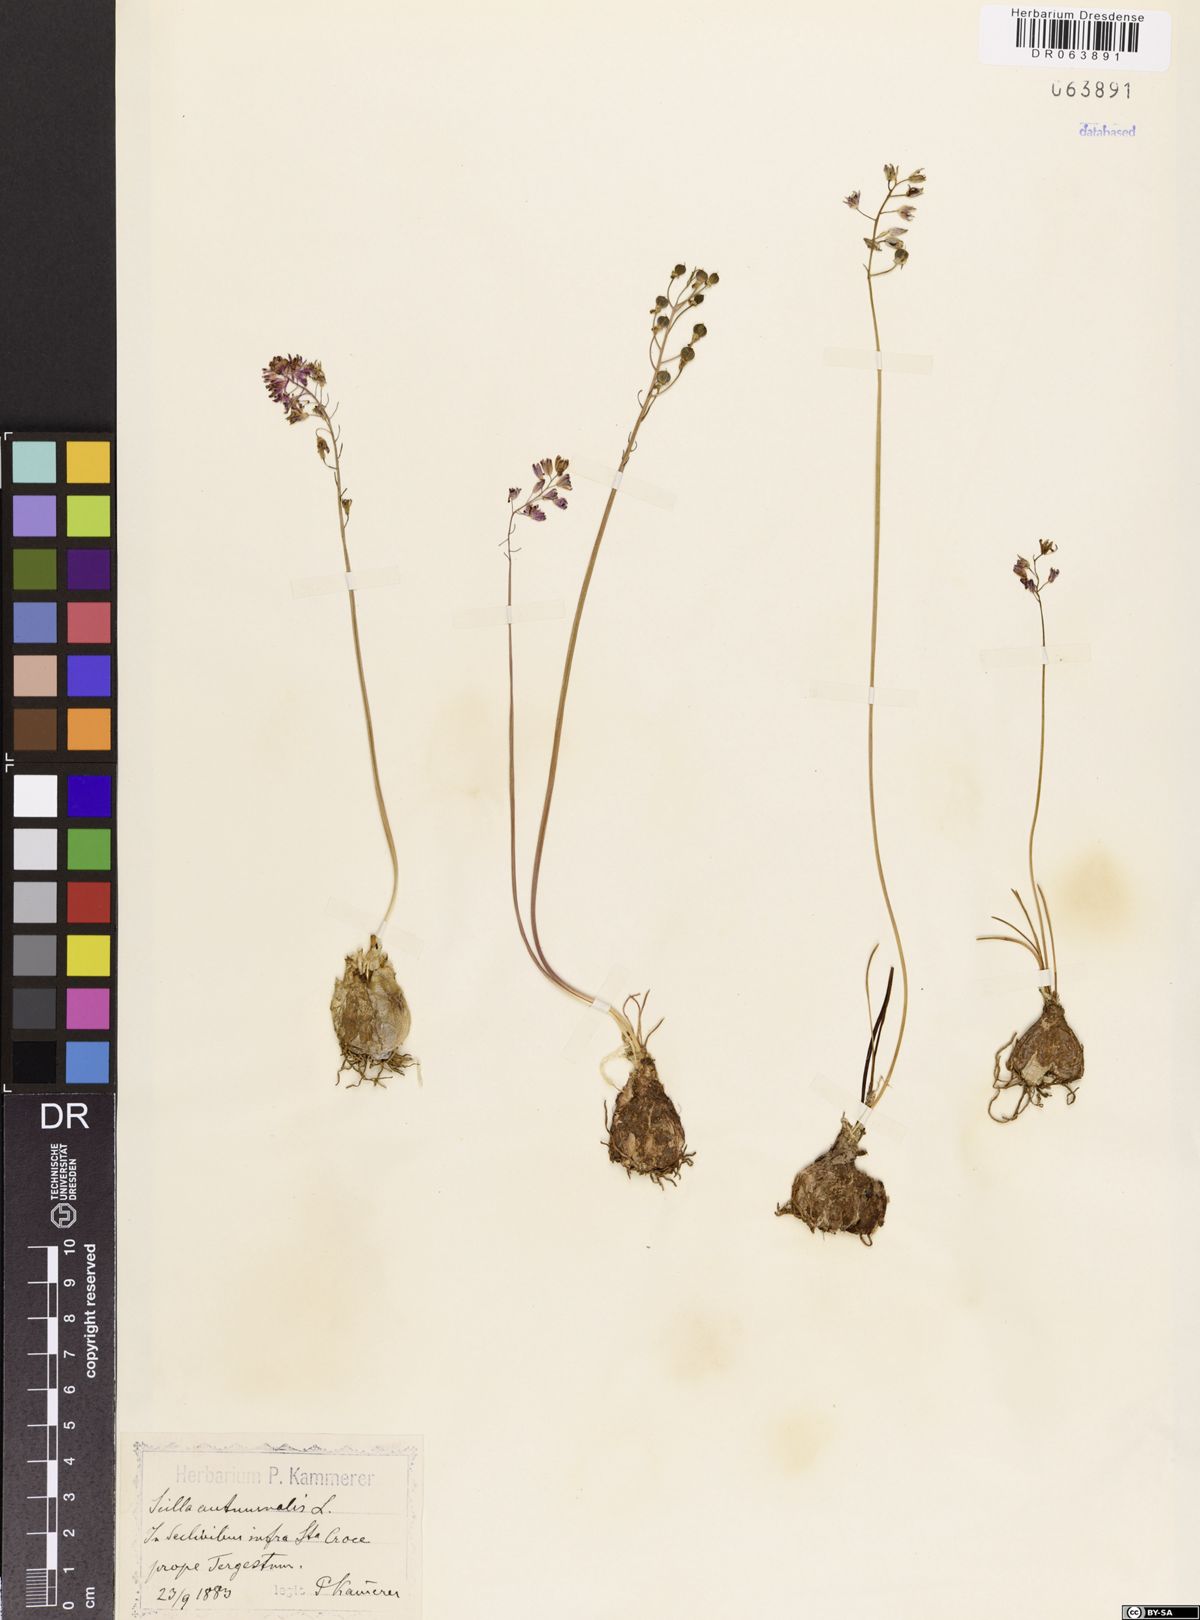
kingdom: Plantae
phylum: Tracheophyta
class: Liliopsida
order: Asparagales
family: Asparagaceae
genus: Prospero
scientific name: Prospero autumnale
